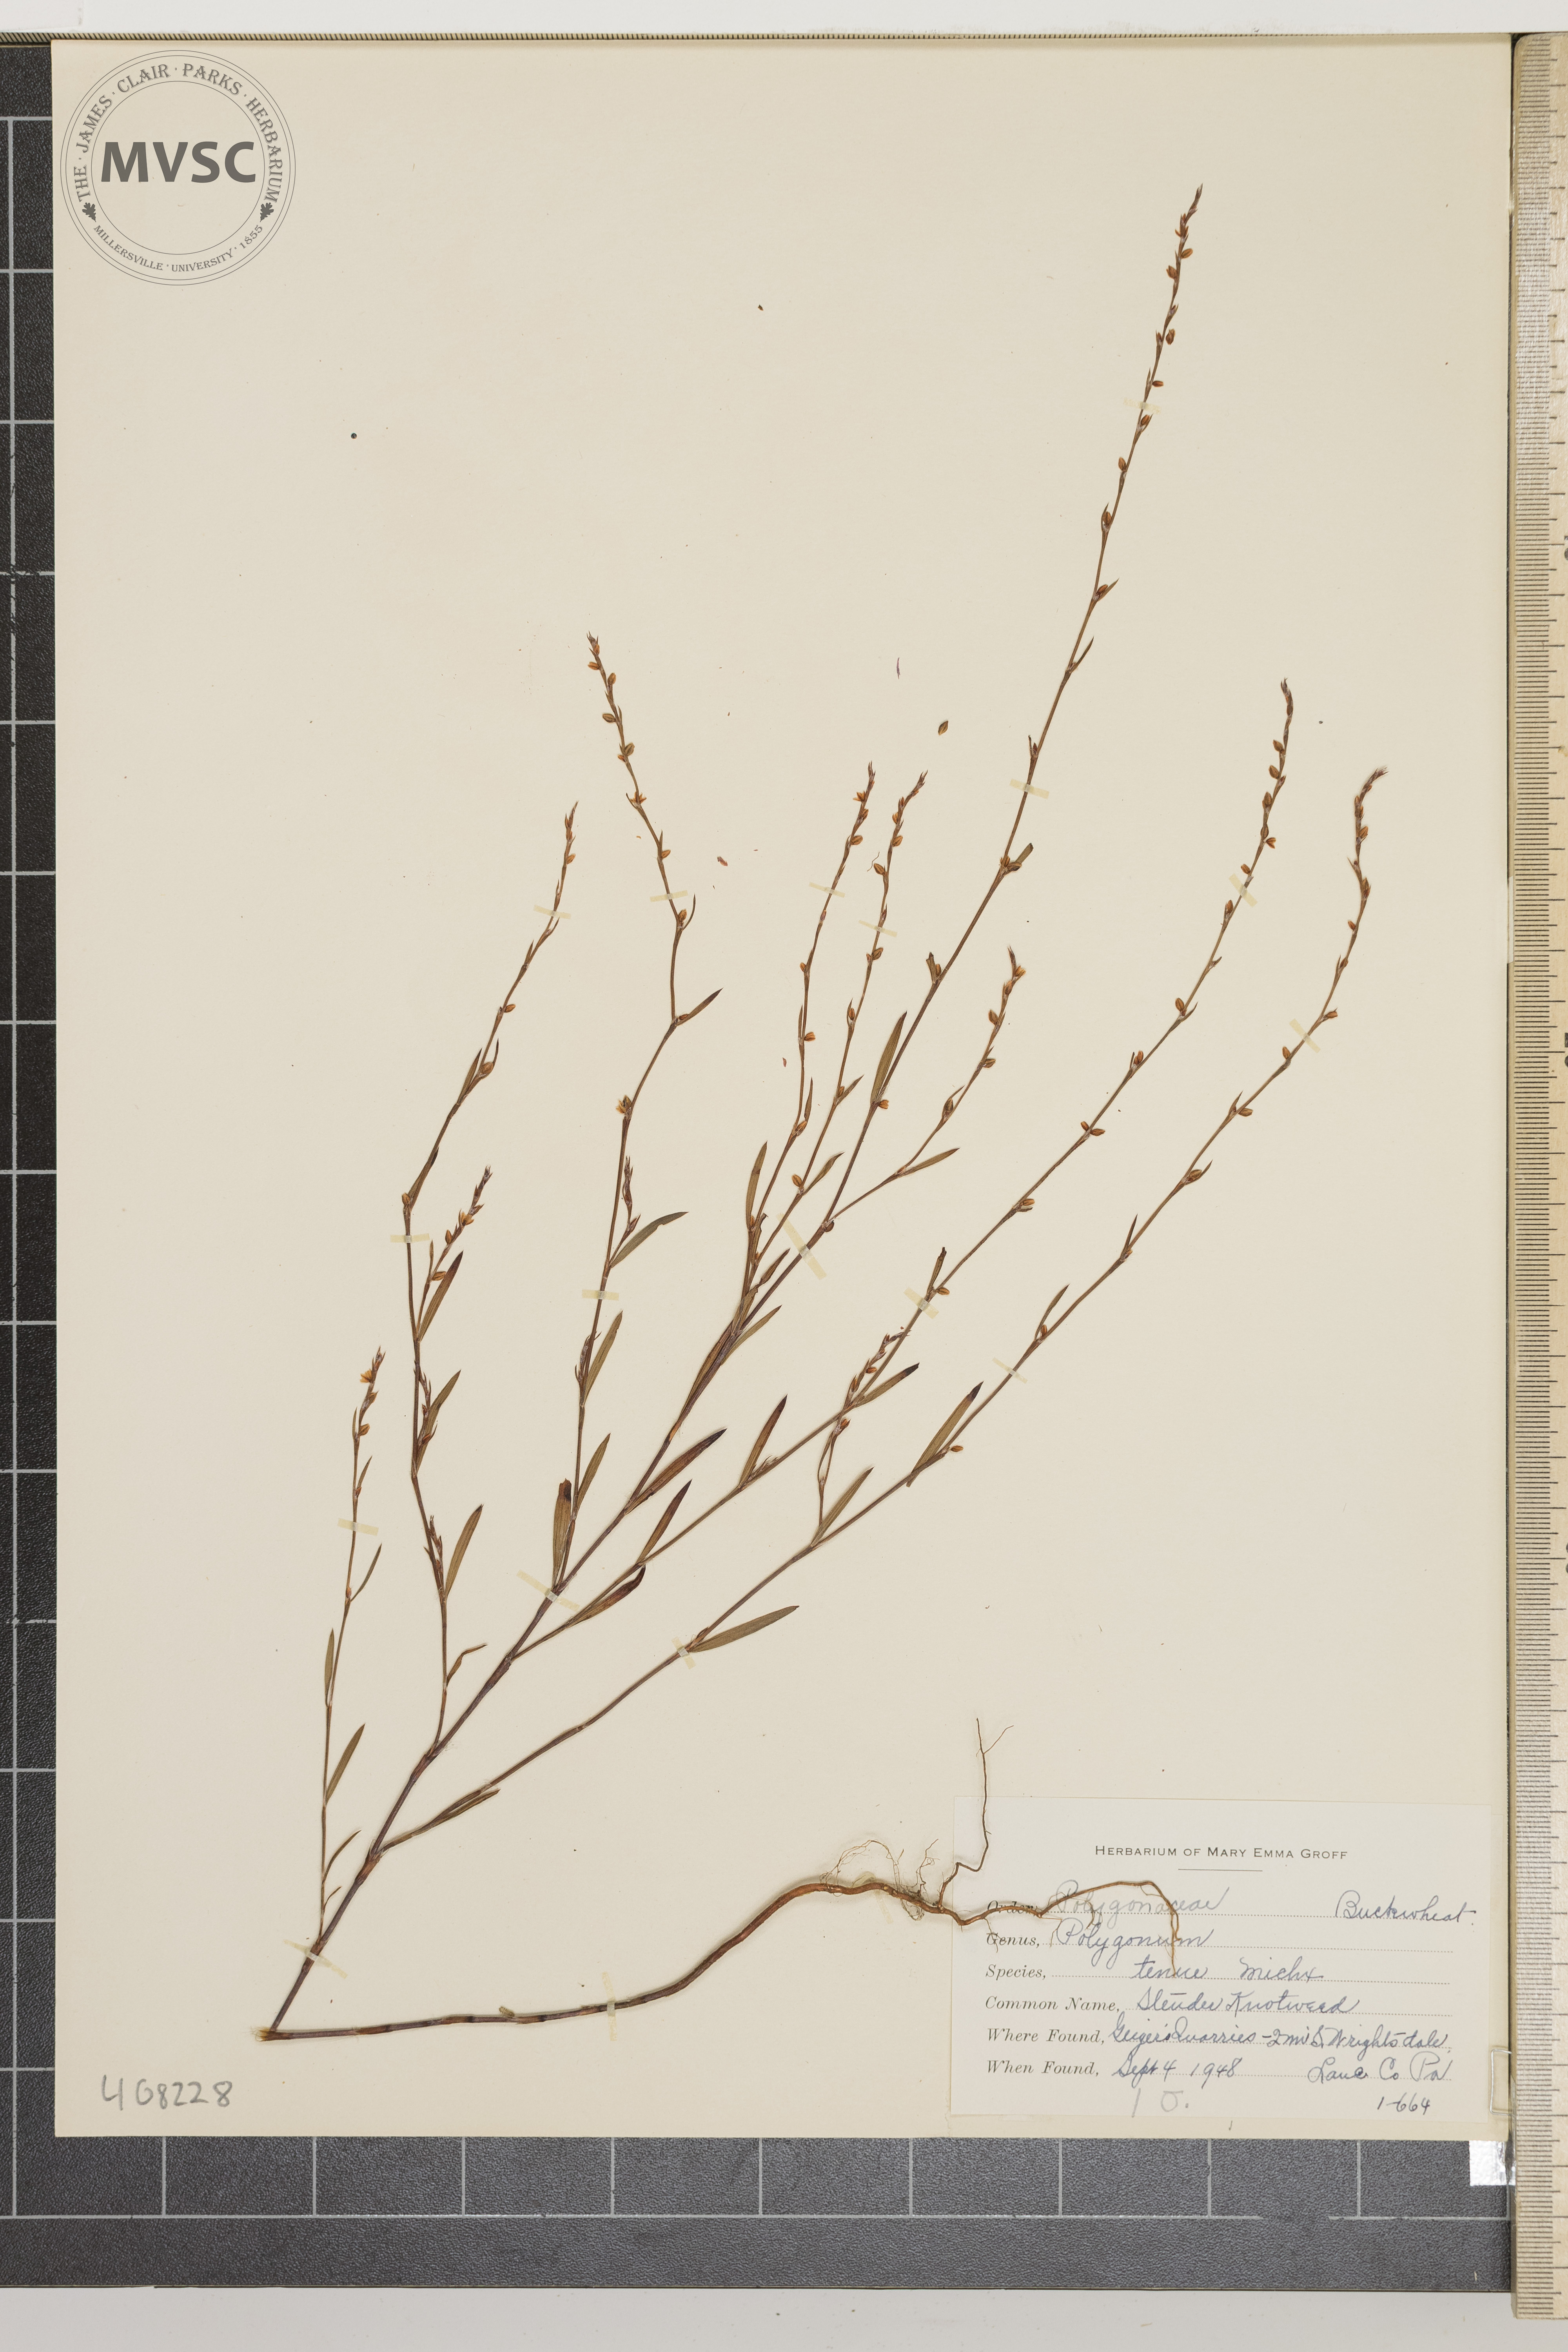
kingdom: Plantae
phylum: Tracheophyta
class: Magnoliopsida
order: Caryophyllales
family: Polygonaceae
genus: Polygonum
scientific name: Polygonum tenue
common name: Slender Knotweed
